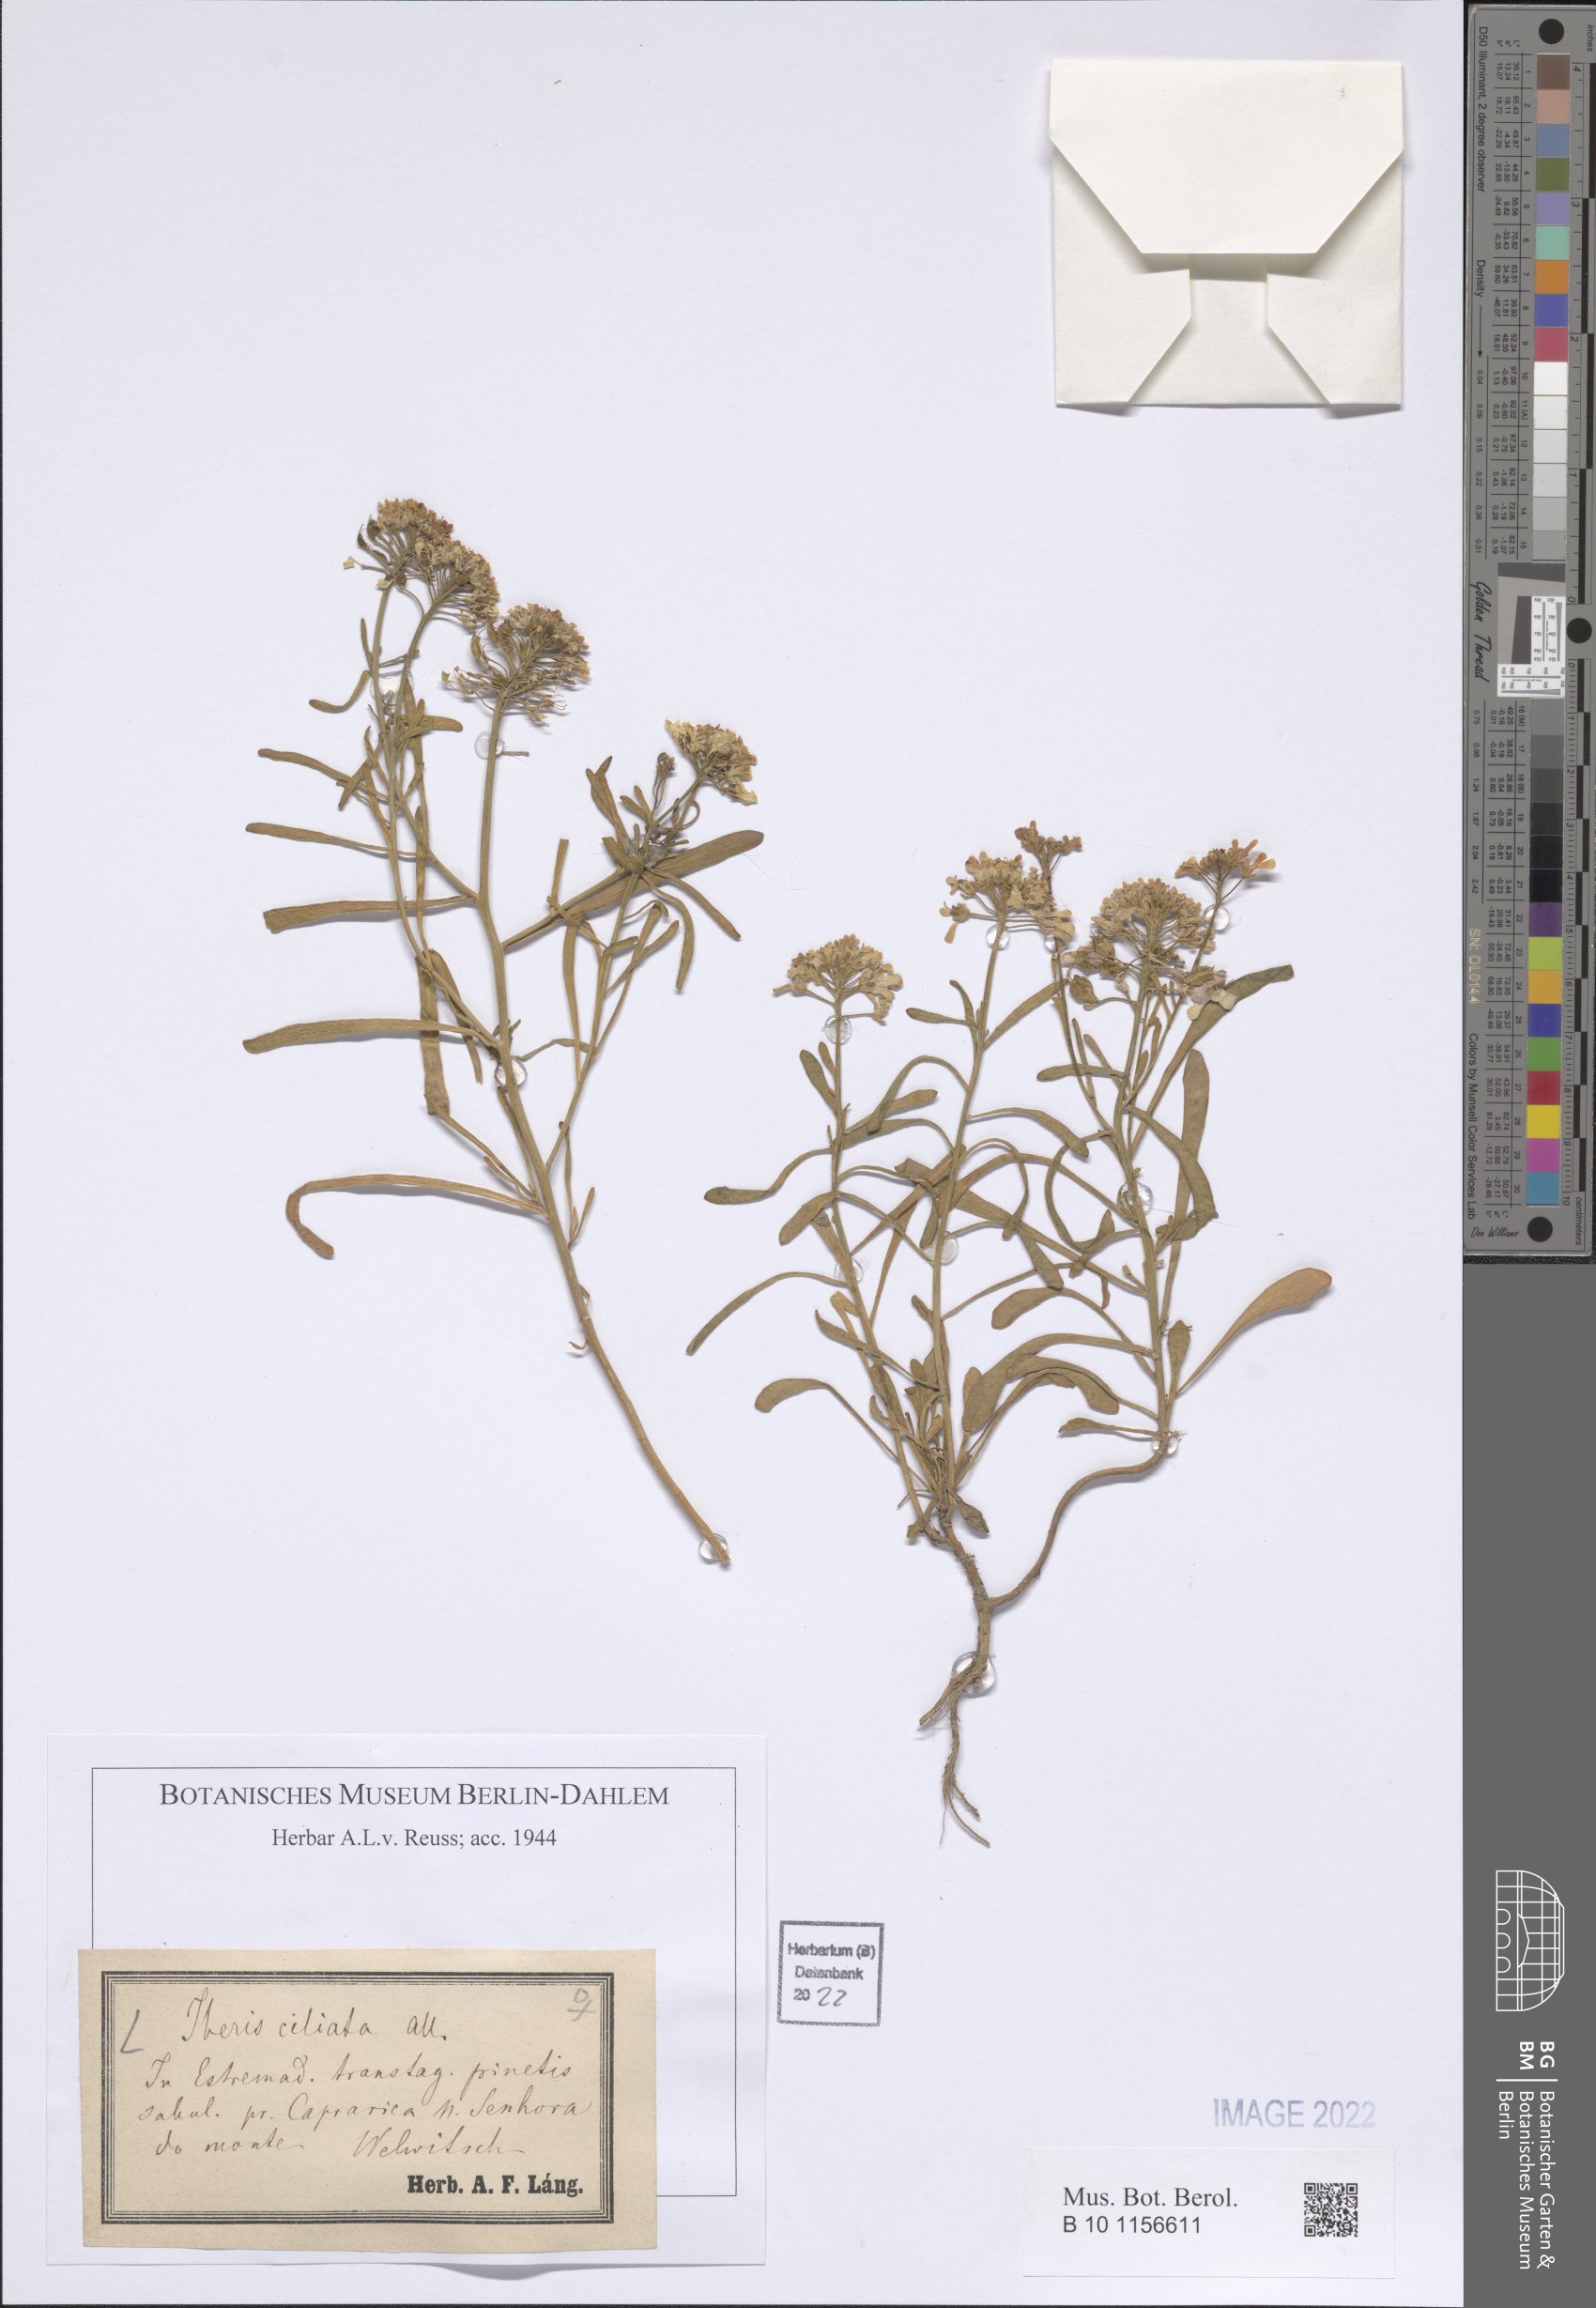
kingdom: Plantae
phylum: Tracheophyta
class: Magnoliopsida
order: Brassicales
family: Brassicaceae
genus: Iberis
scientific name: Iberis ciliata
